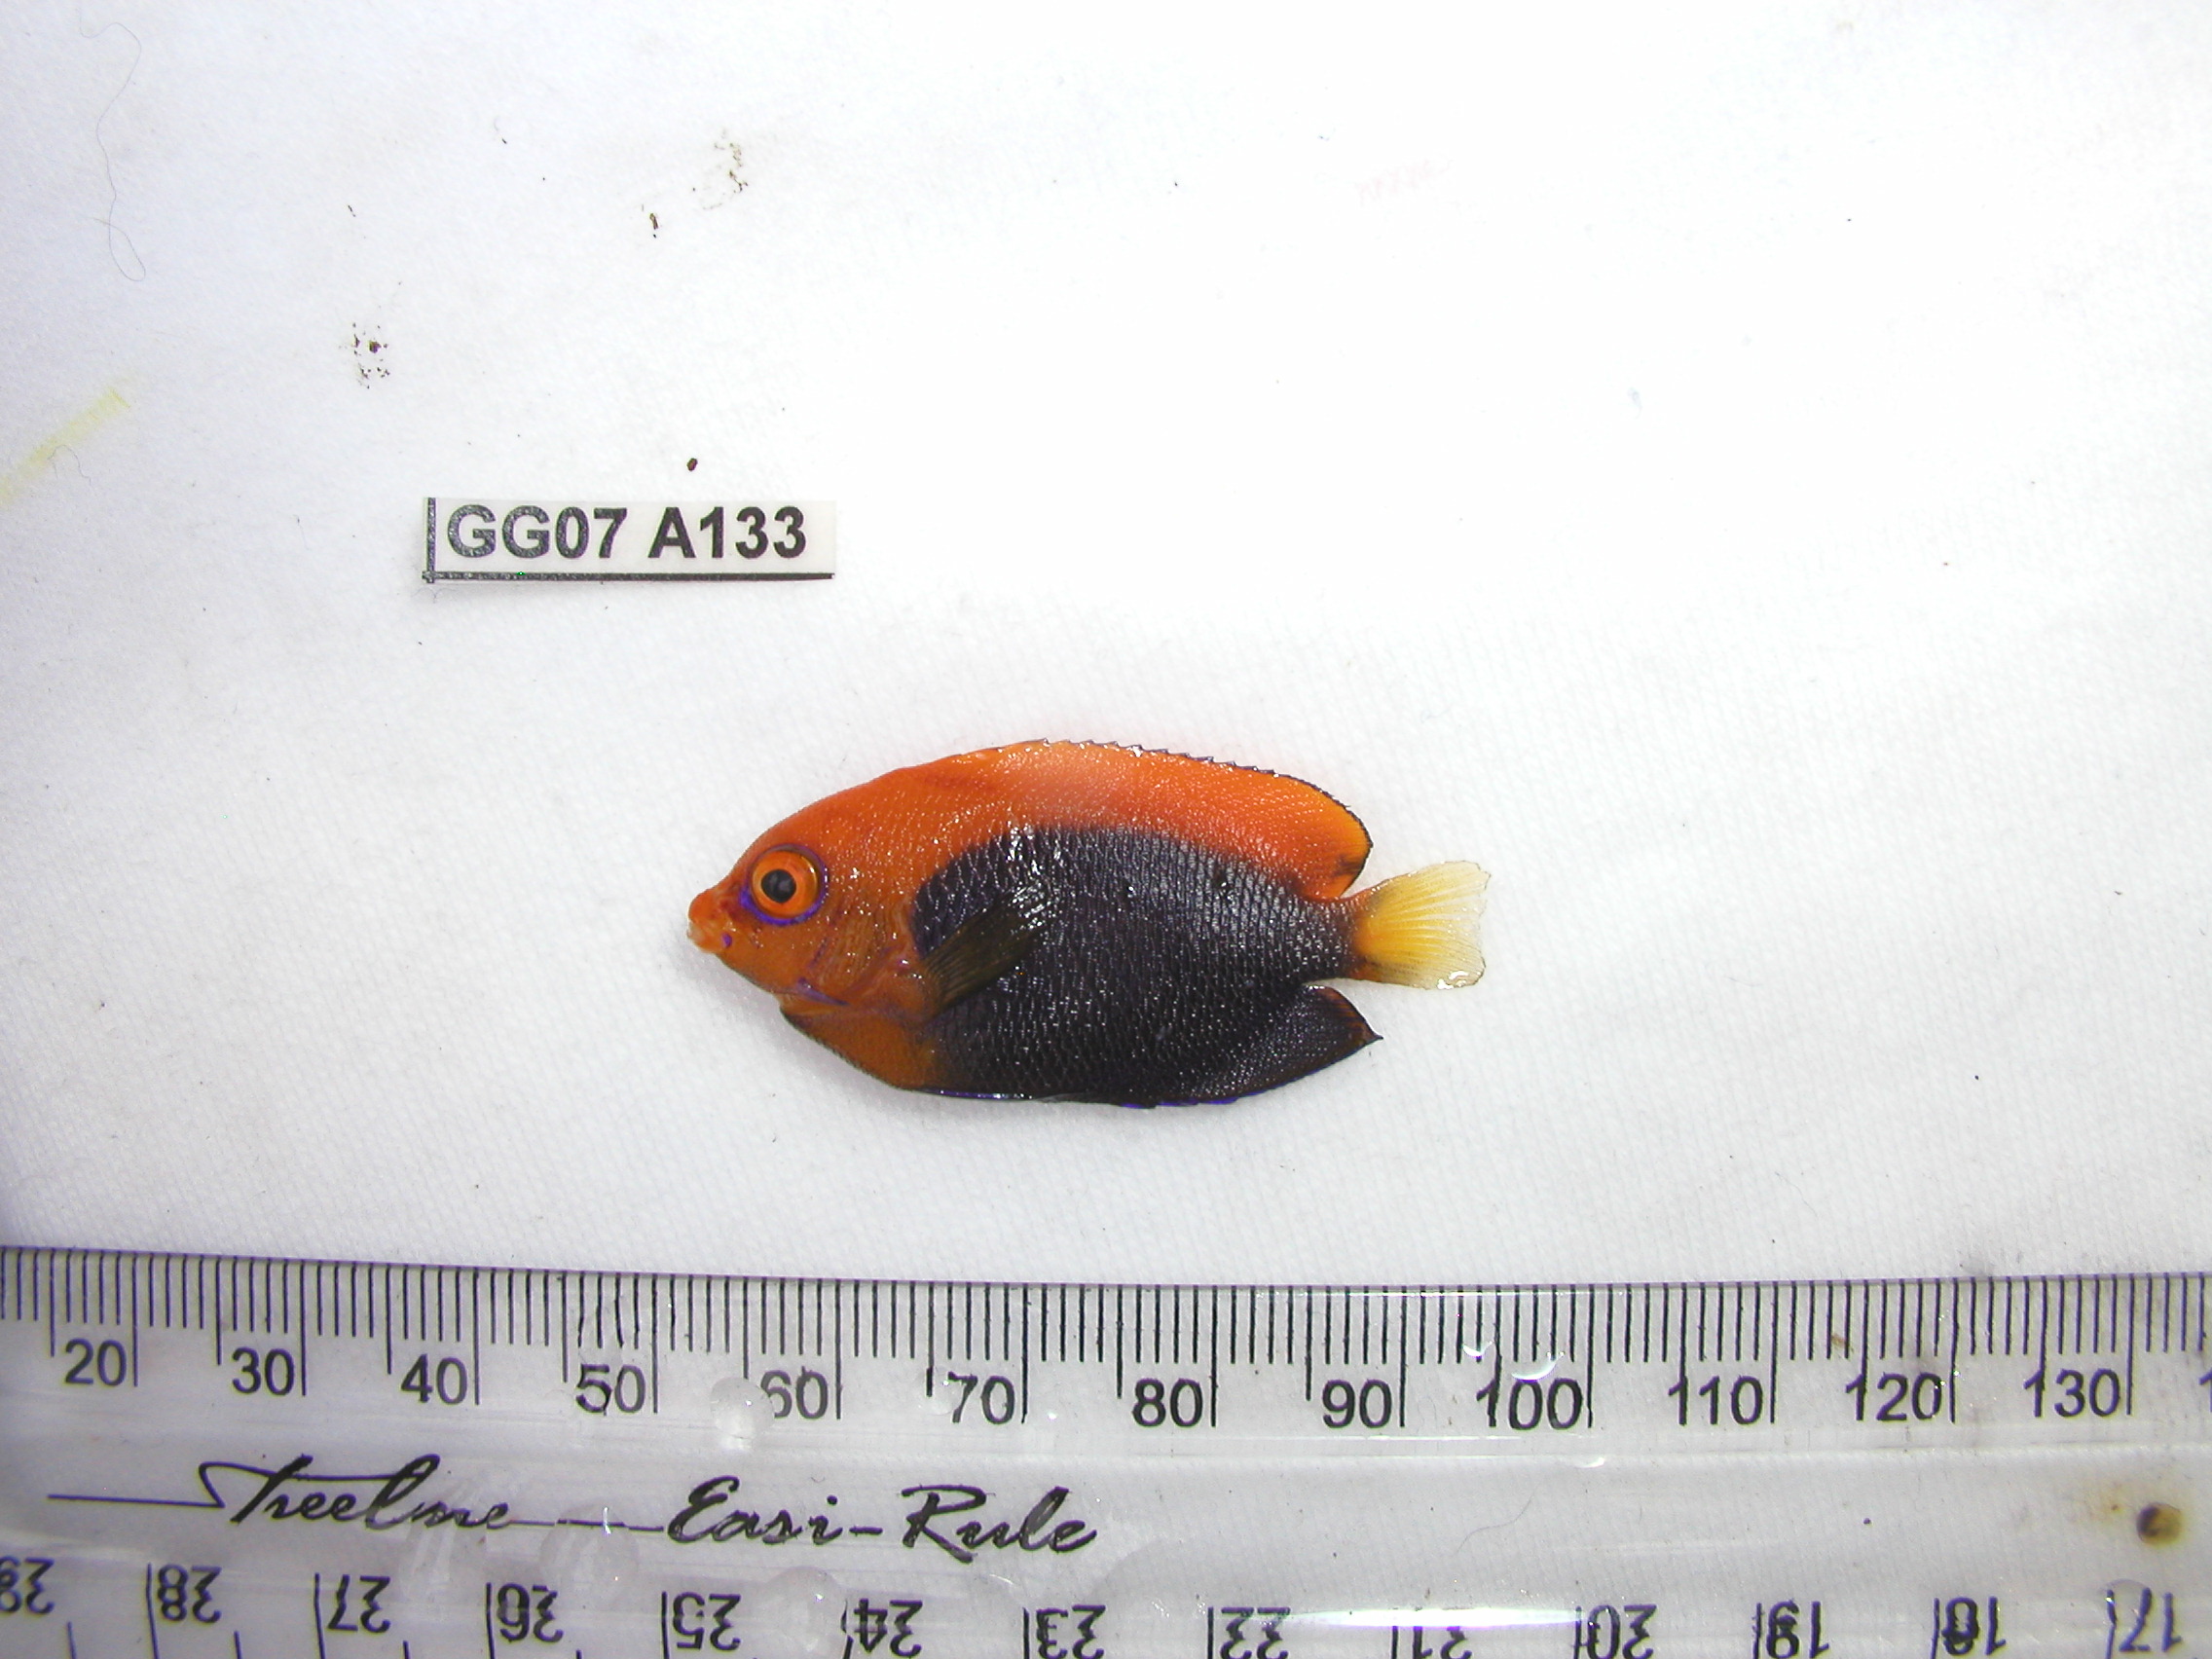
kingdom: Animalia
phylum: Chordata
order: Perciformes
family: Pomacanthidae
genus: Centropyge
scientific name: Centropyge acanthops
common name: African pygmy angelfish
